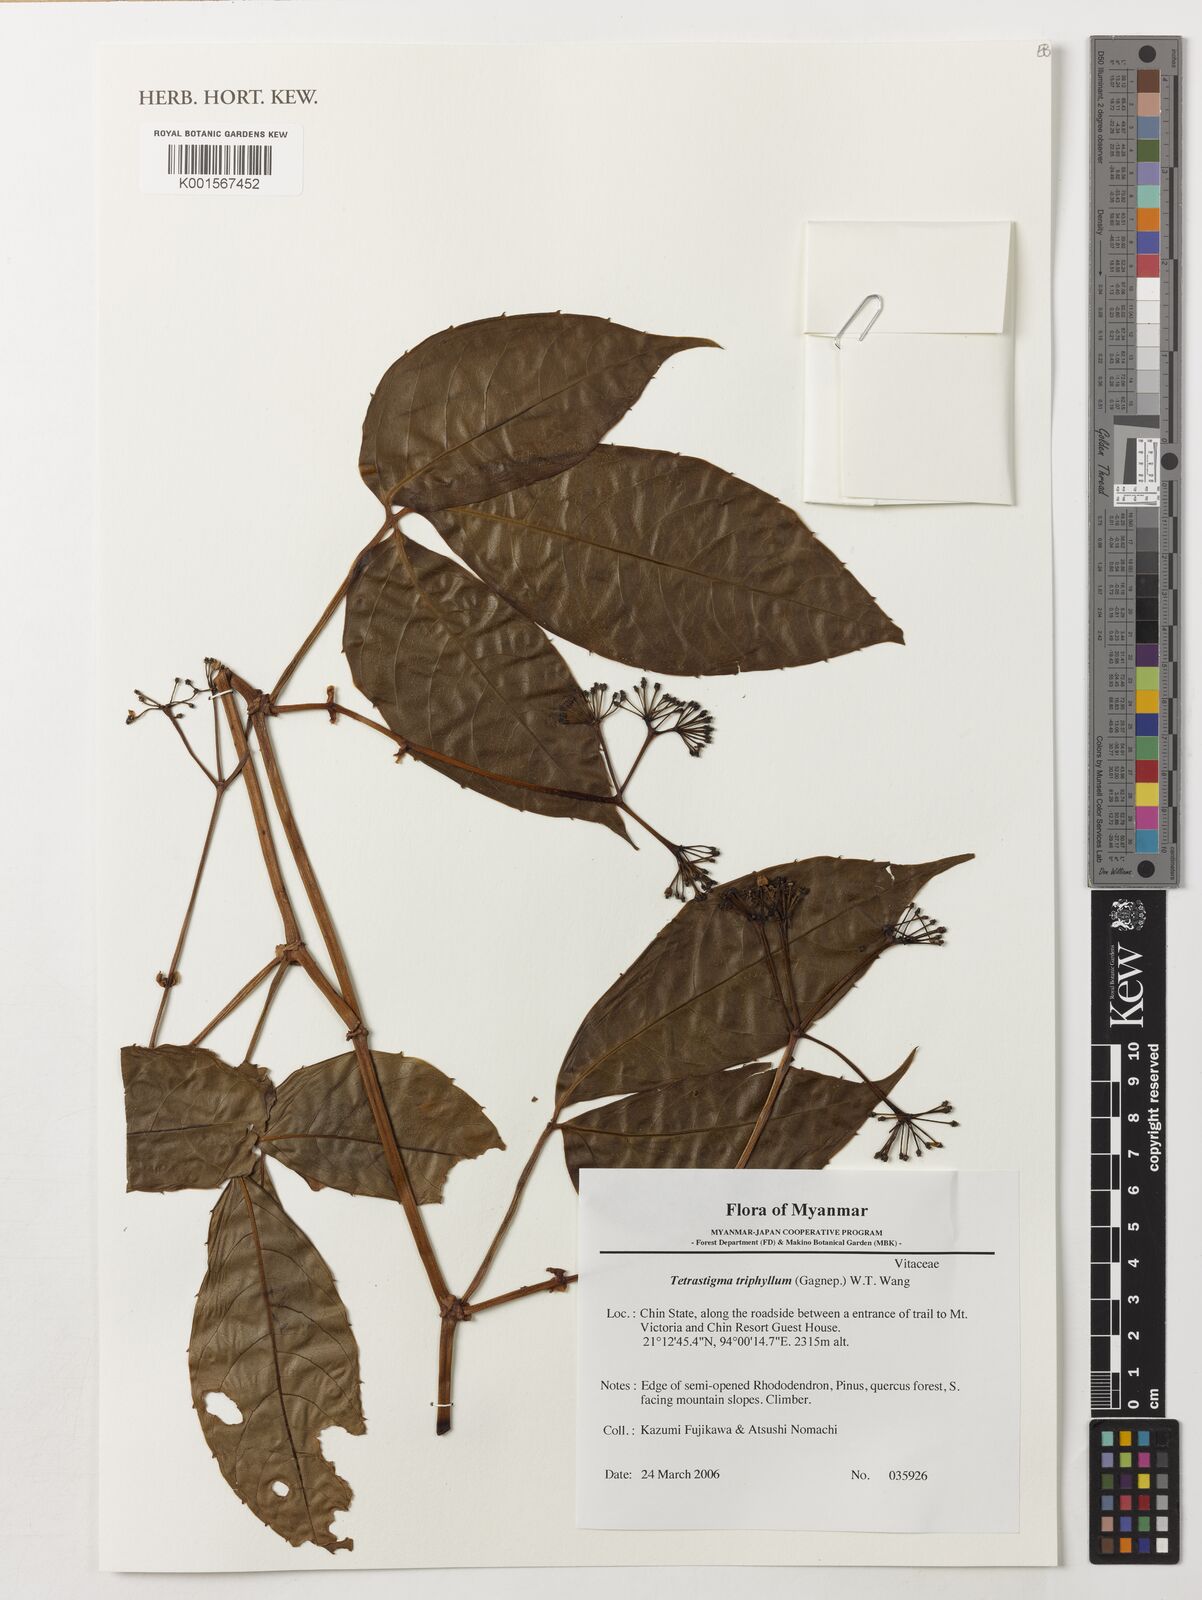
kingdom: Plantae
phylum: Tracheophyta
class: Magnoliopsida
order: Vitales
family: Vitaceae
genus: Tetrastigma
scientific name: Tetrastigma triphyllum
